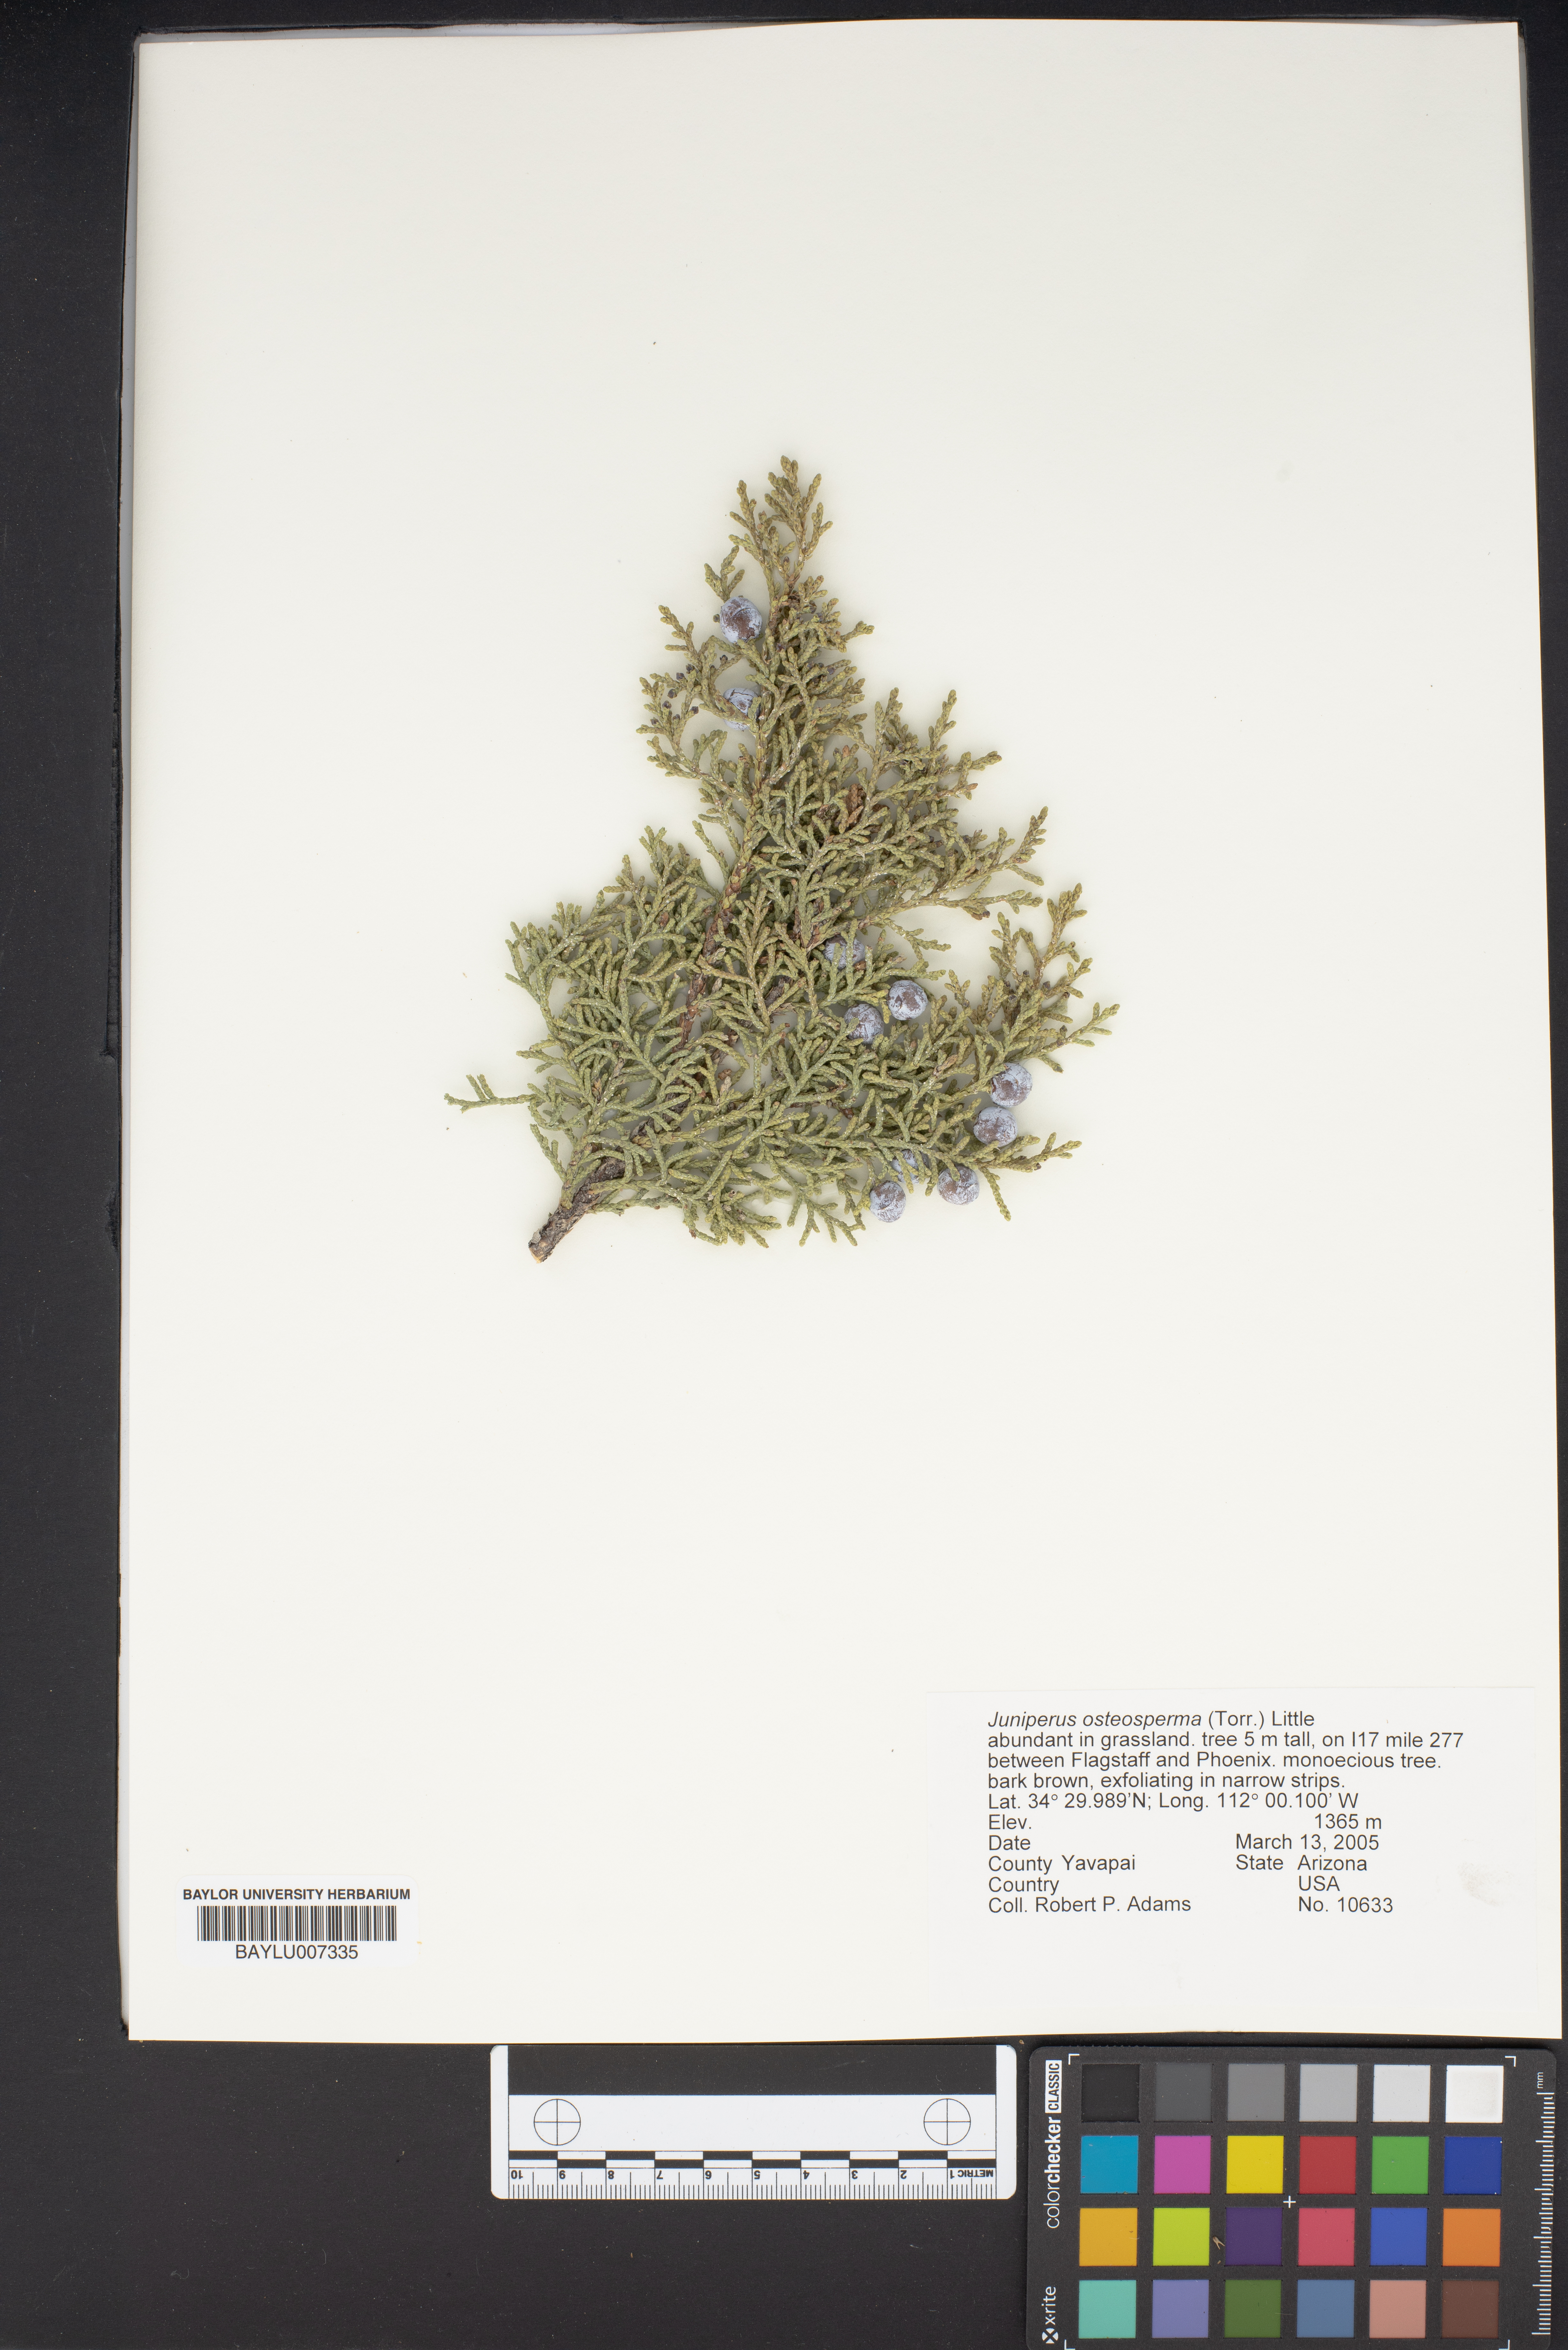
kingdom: Plantae
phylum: Tracheophyta
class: Pinopsida
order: Pinales
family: Cupressaceae
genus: Juniperus
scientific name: Juniperus osteosperma
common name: Utah juniper
